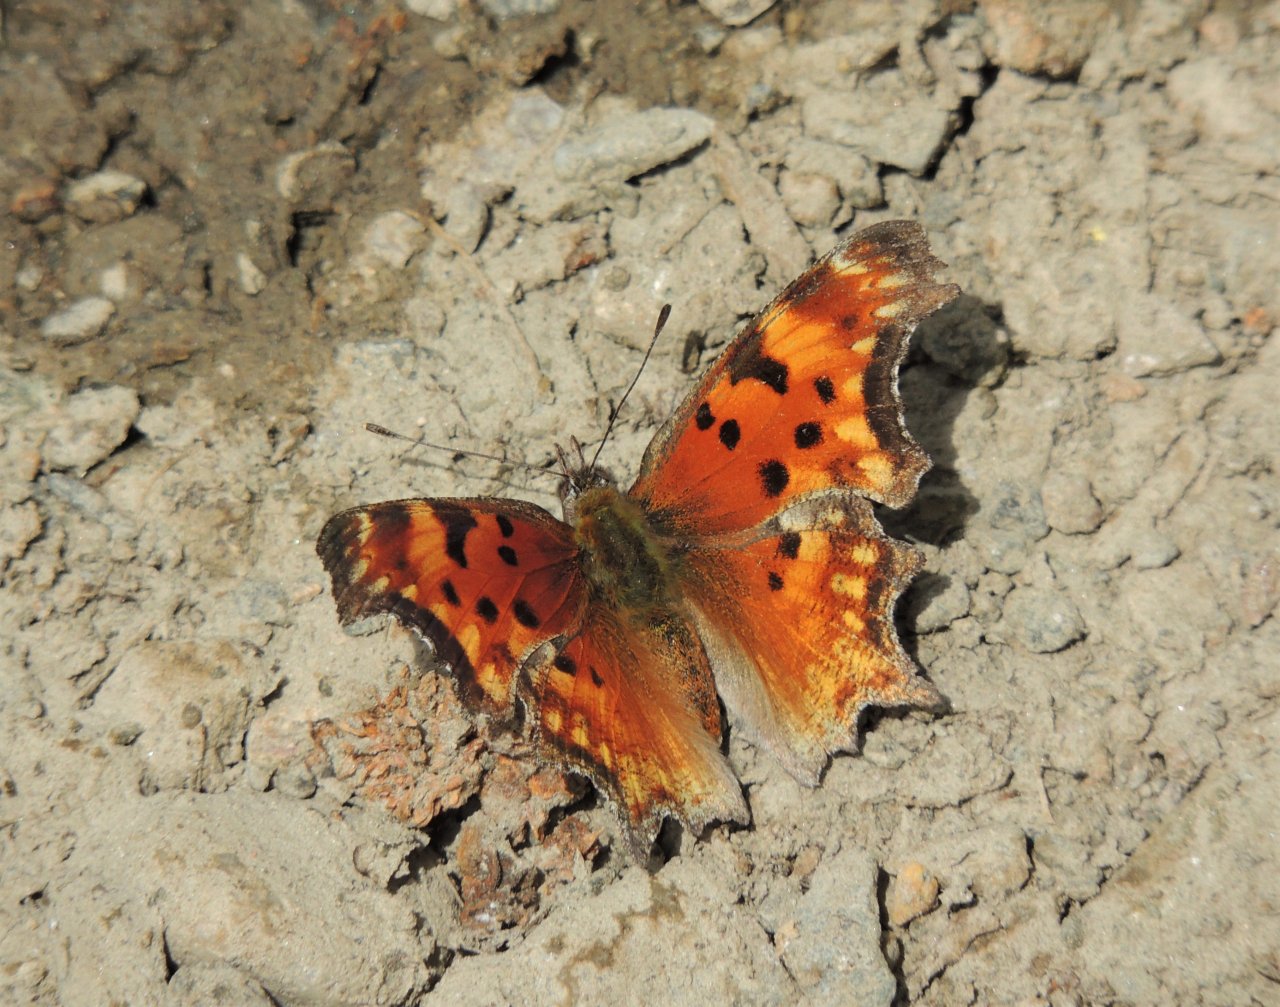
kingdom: Animalia
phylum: Arthropoda
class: Insecta
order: Lepidoptera
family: Nymphalidae
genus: Polygonia
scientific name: Polygonia gracilis
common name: Hoary Comma
